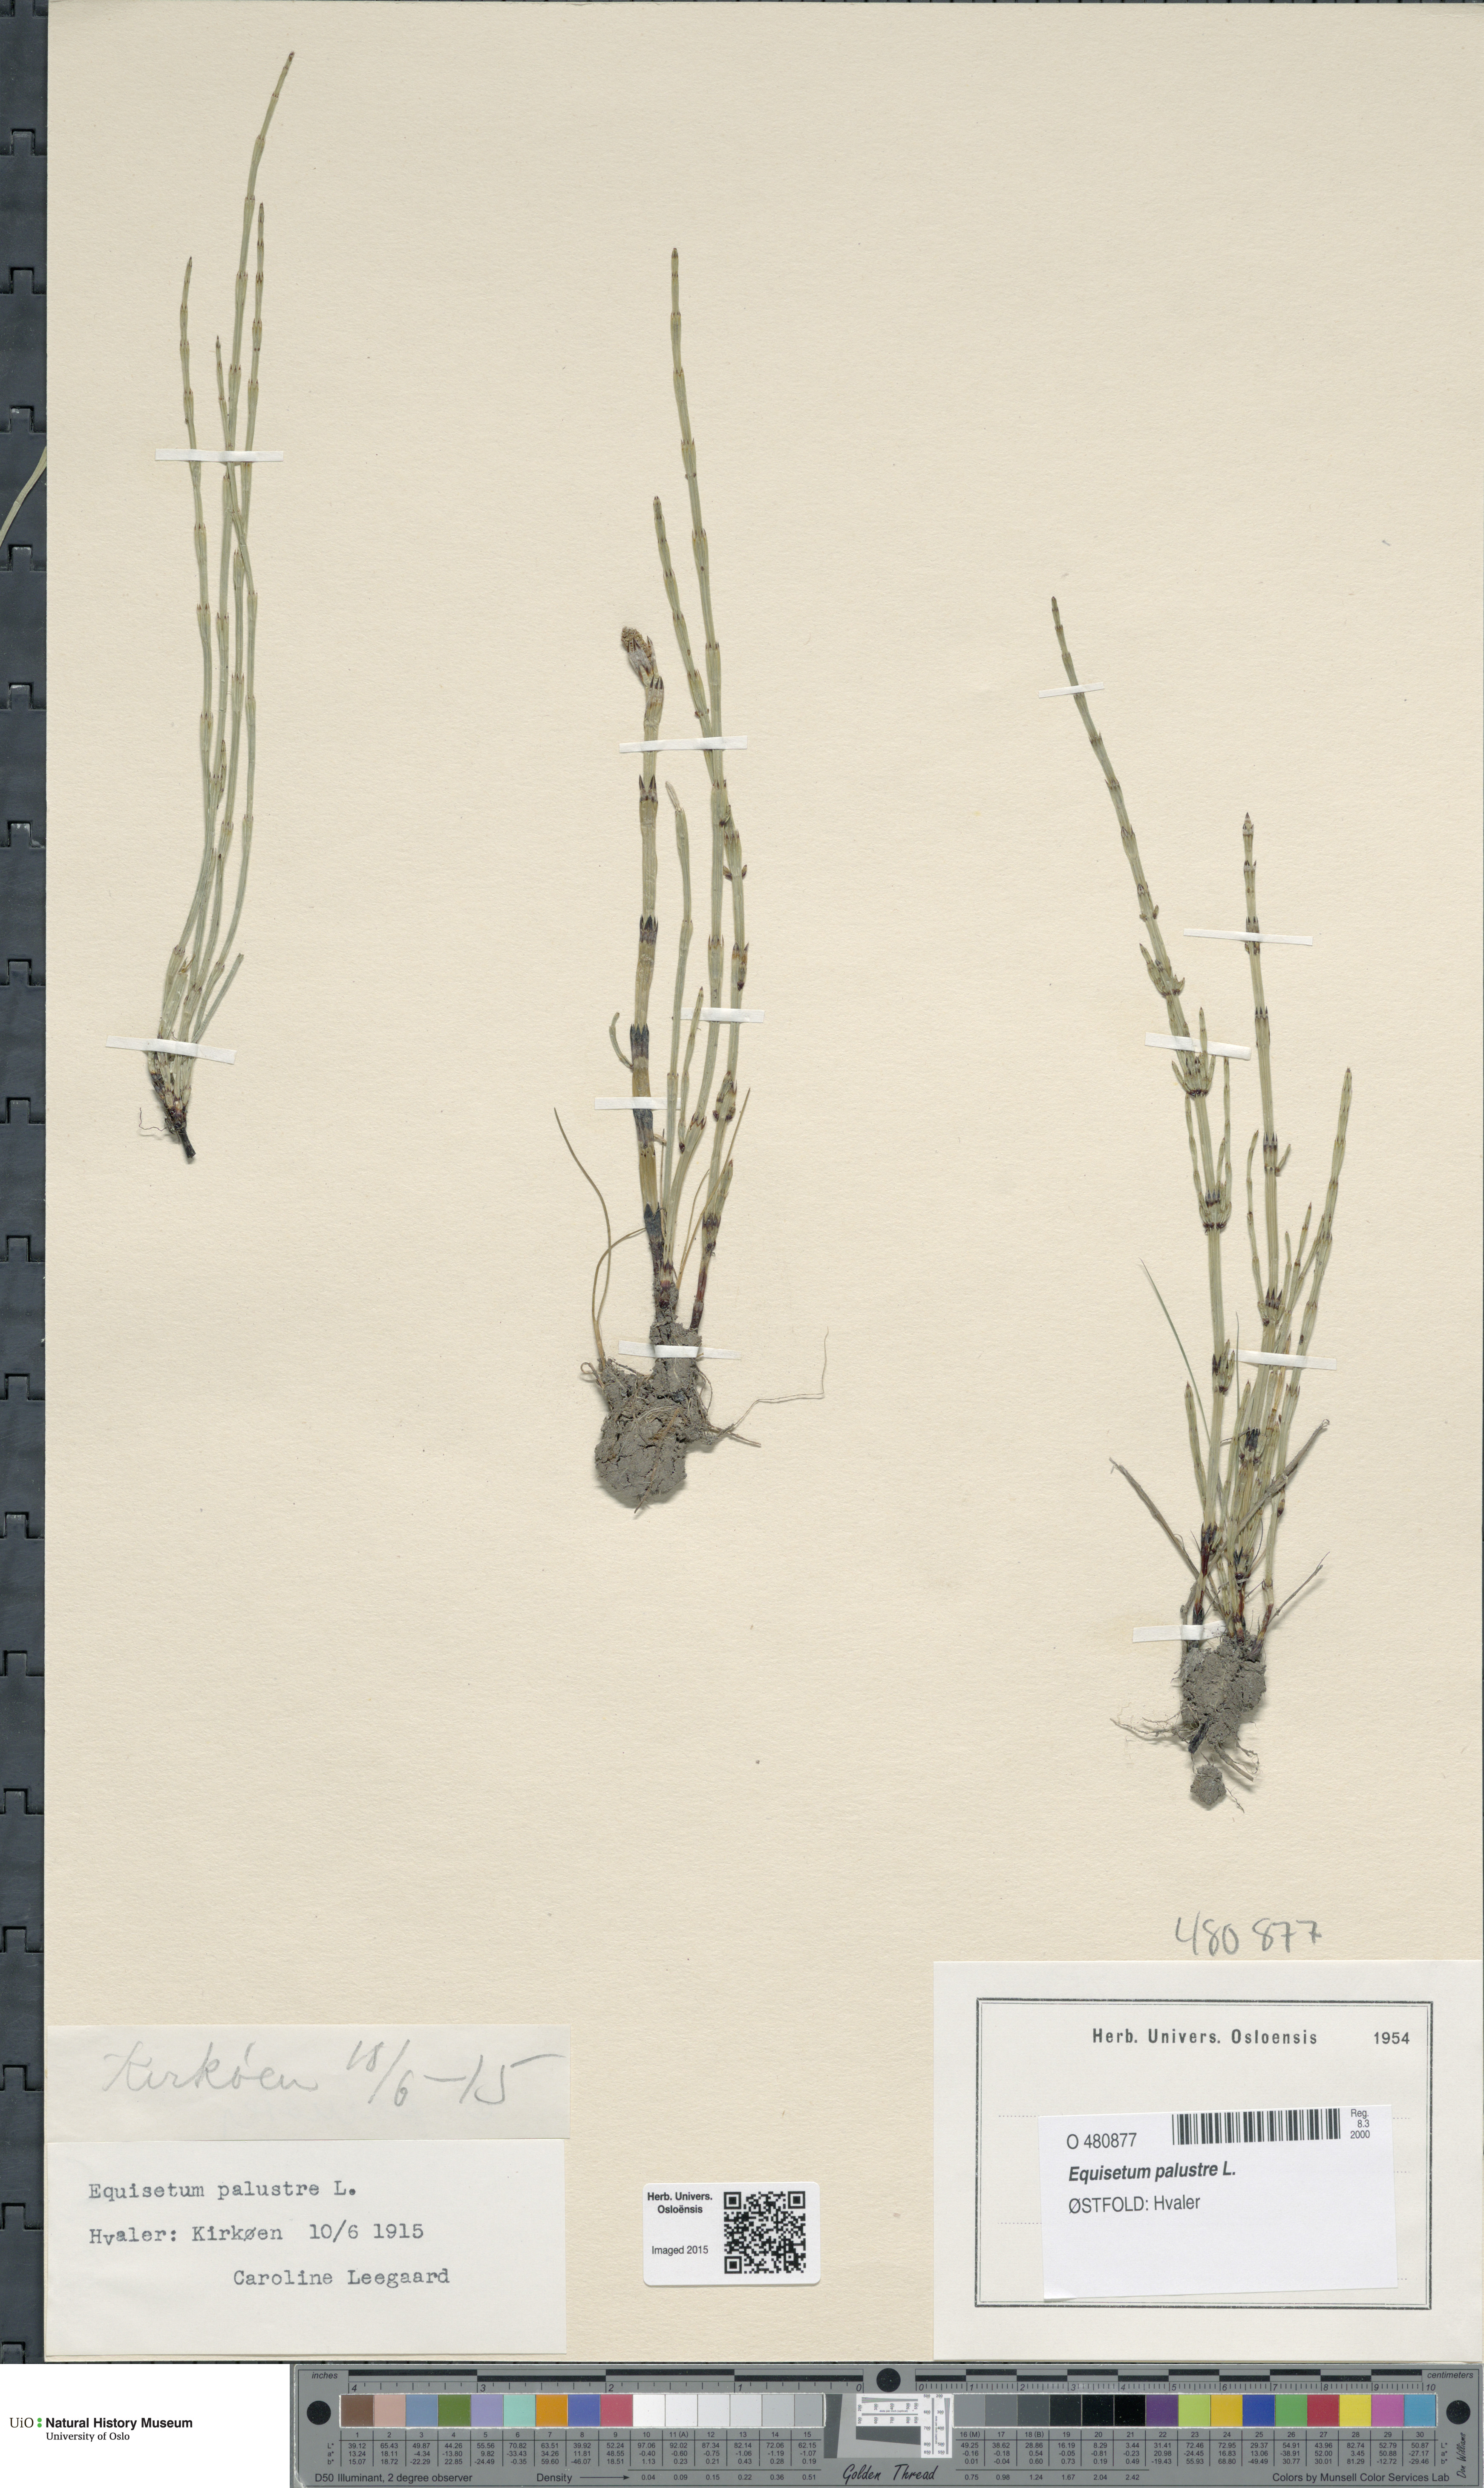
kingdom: Plantae
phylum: Tracheophyta
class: Polypodiopsida
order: Equisetales
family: Equisetaceae
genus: Equisetum
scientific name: Equisetum palustre
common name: Marsh horsetail
